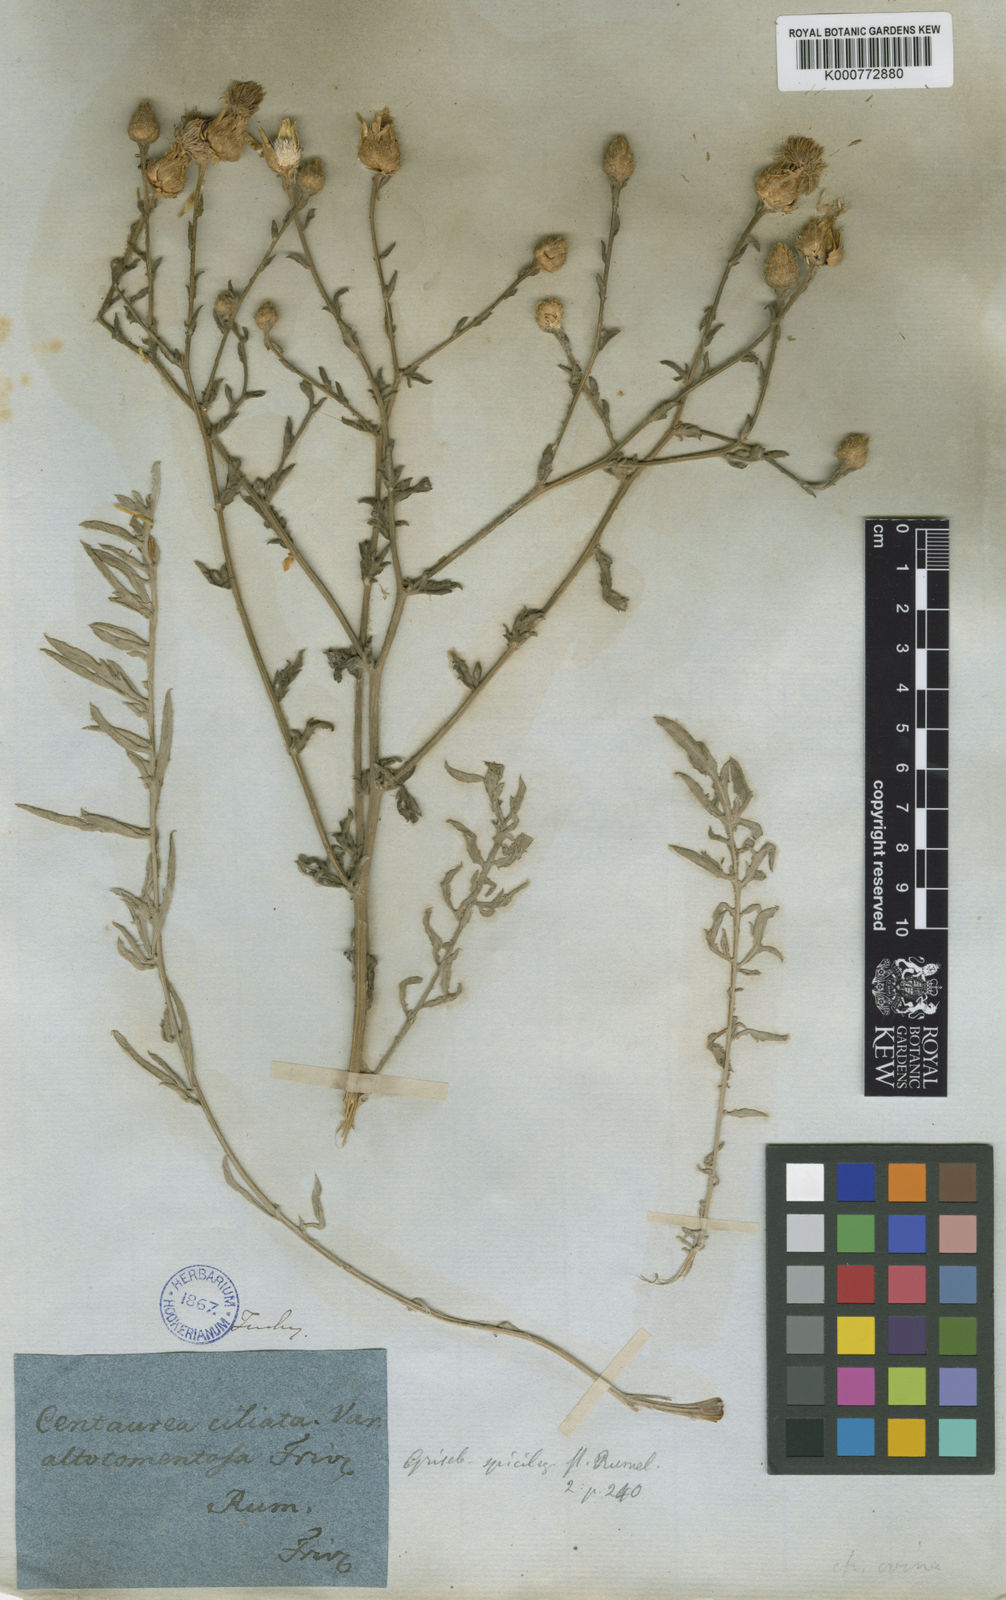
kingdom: Plantae
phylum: Tracheophyta
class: Magnoliopsida
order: Asterales
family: Asteraceae
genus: Centaurea
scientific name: Centaurea cuneifolia
